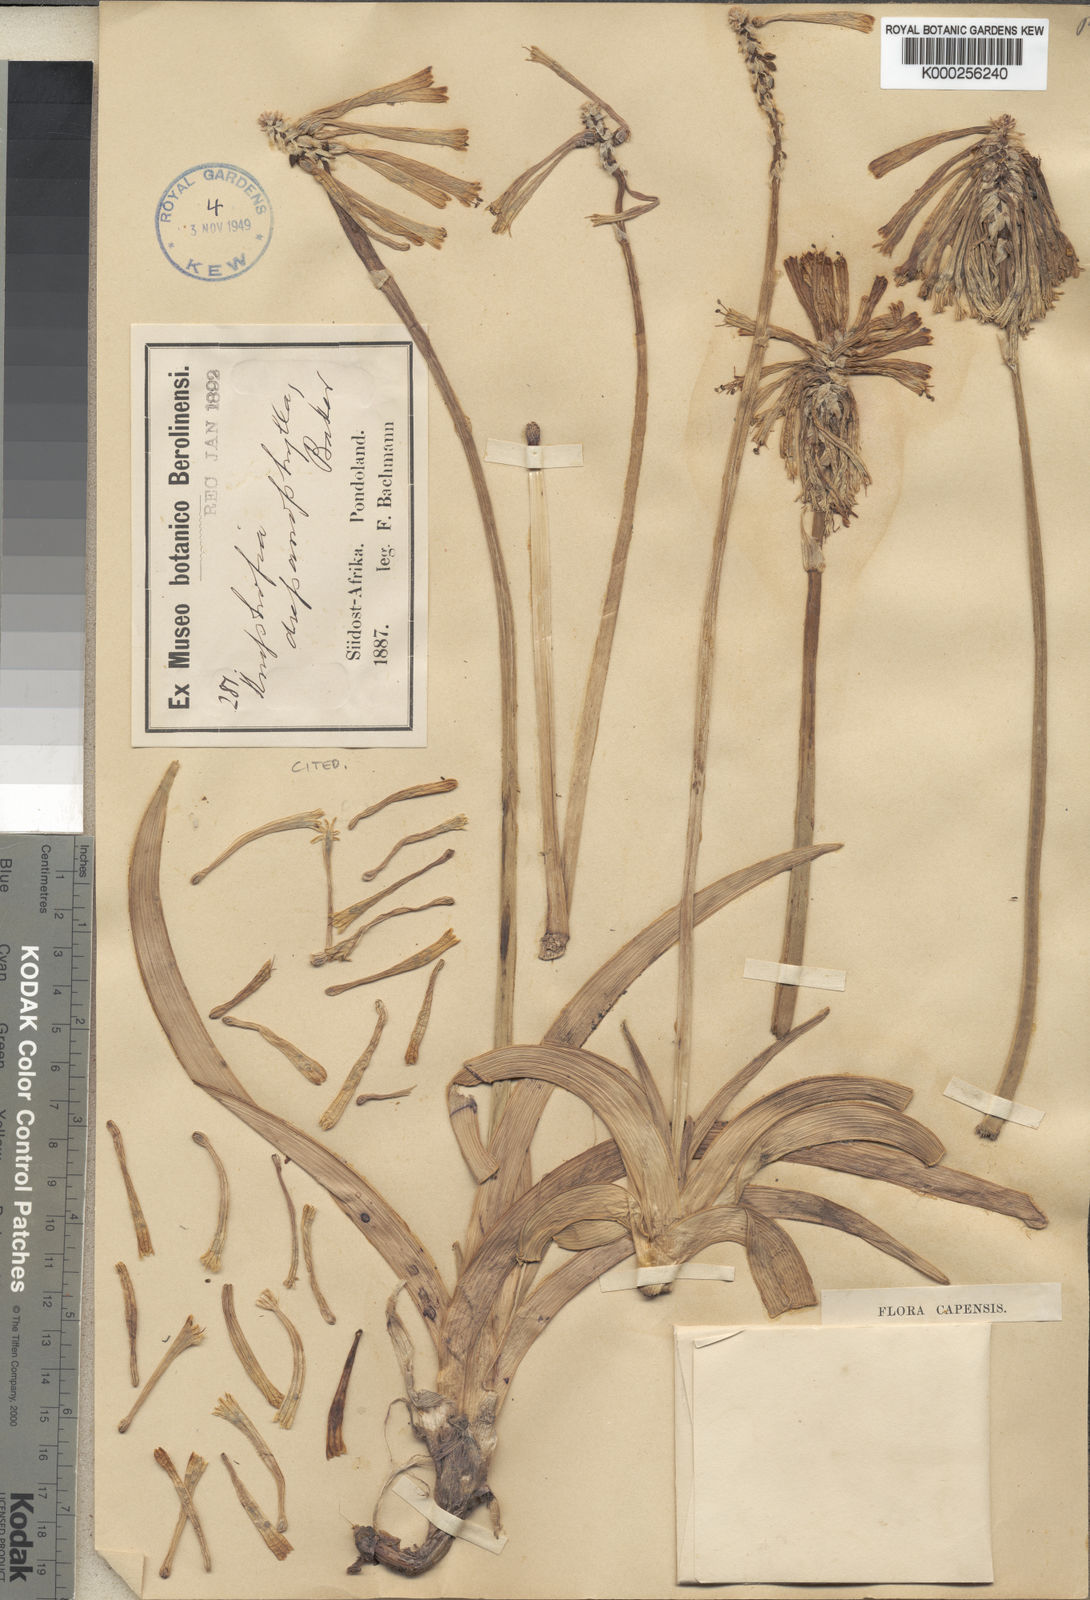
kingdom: Plantae
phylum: Tracheophyta
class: Liliopsida
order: Asparagales
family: Asphodelaceae
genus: Kniphofia
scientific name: Kniphofia drepanophylla
